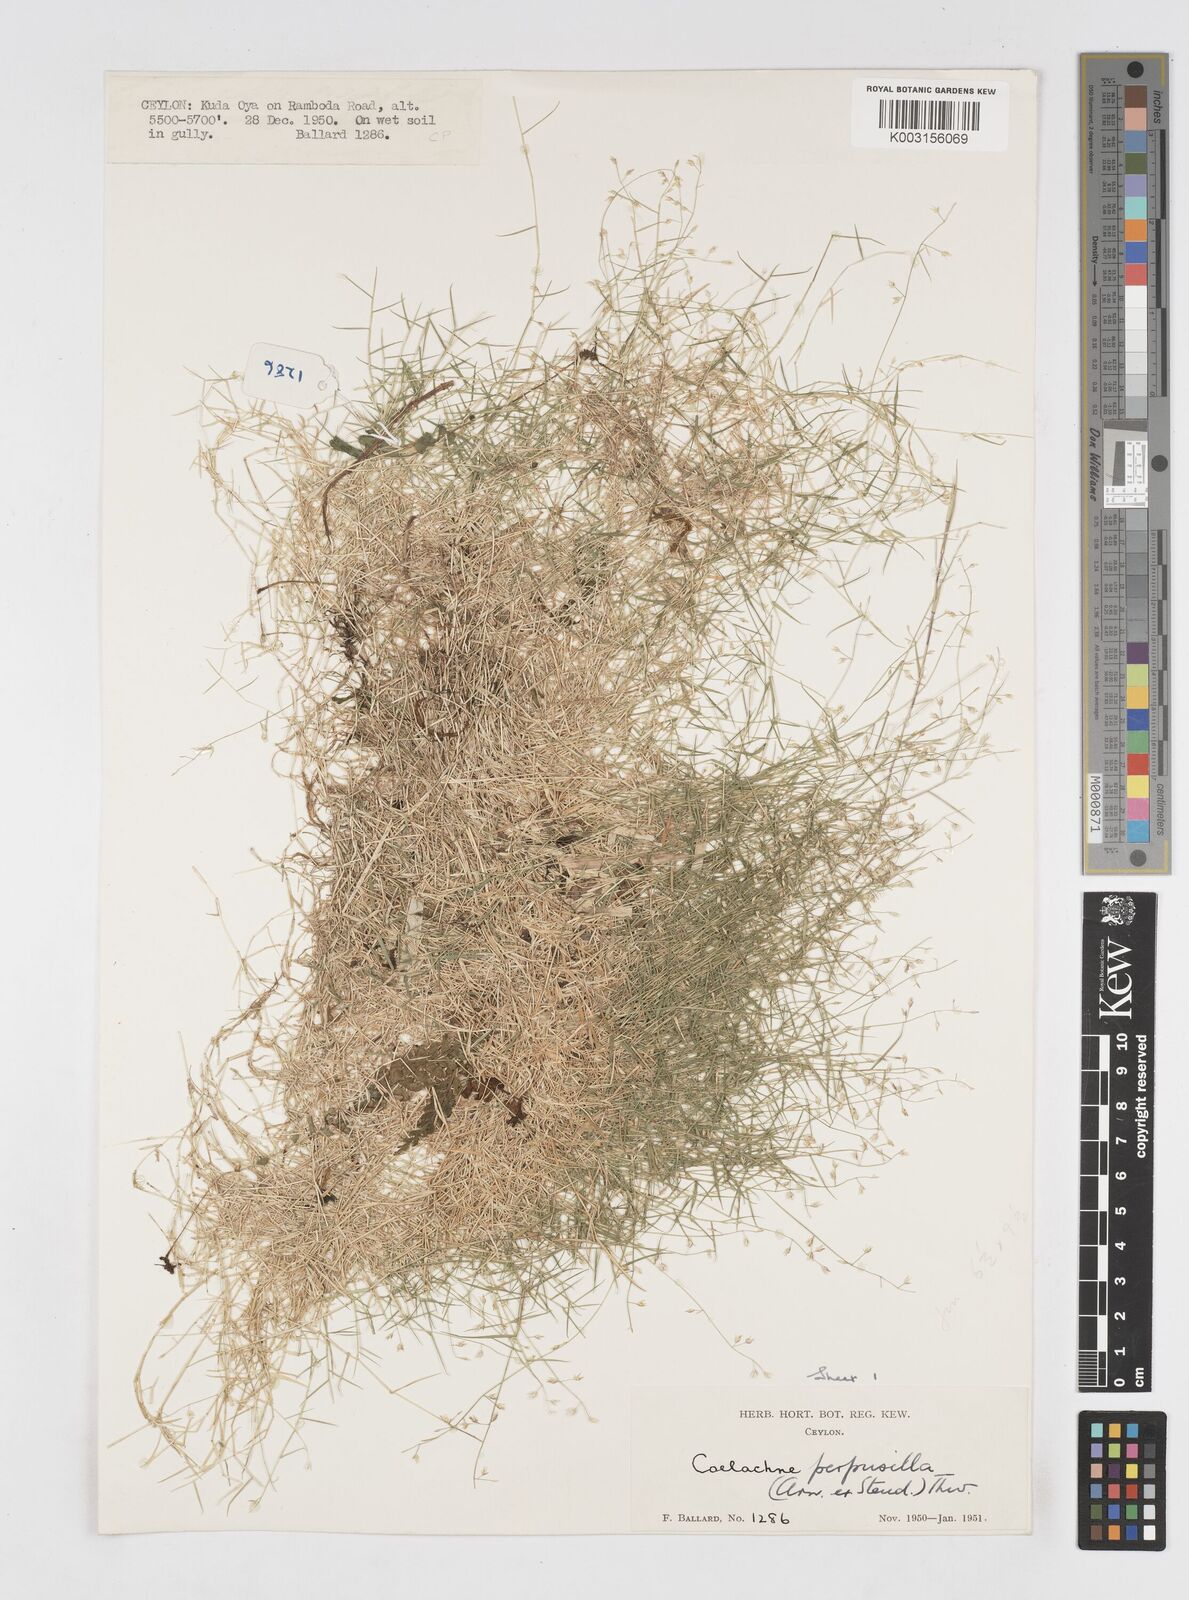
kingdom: Plantae
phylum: Tracheophyta
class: Liliopsida
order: Poales
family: Poaceae
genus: Coelachne
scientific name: Coelachne perpusilla
